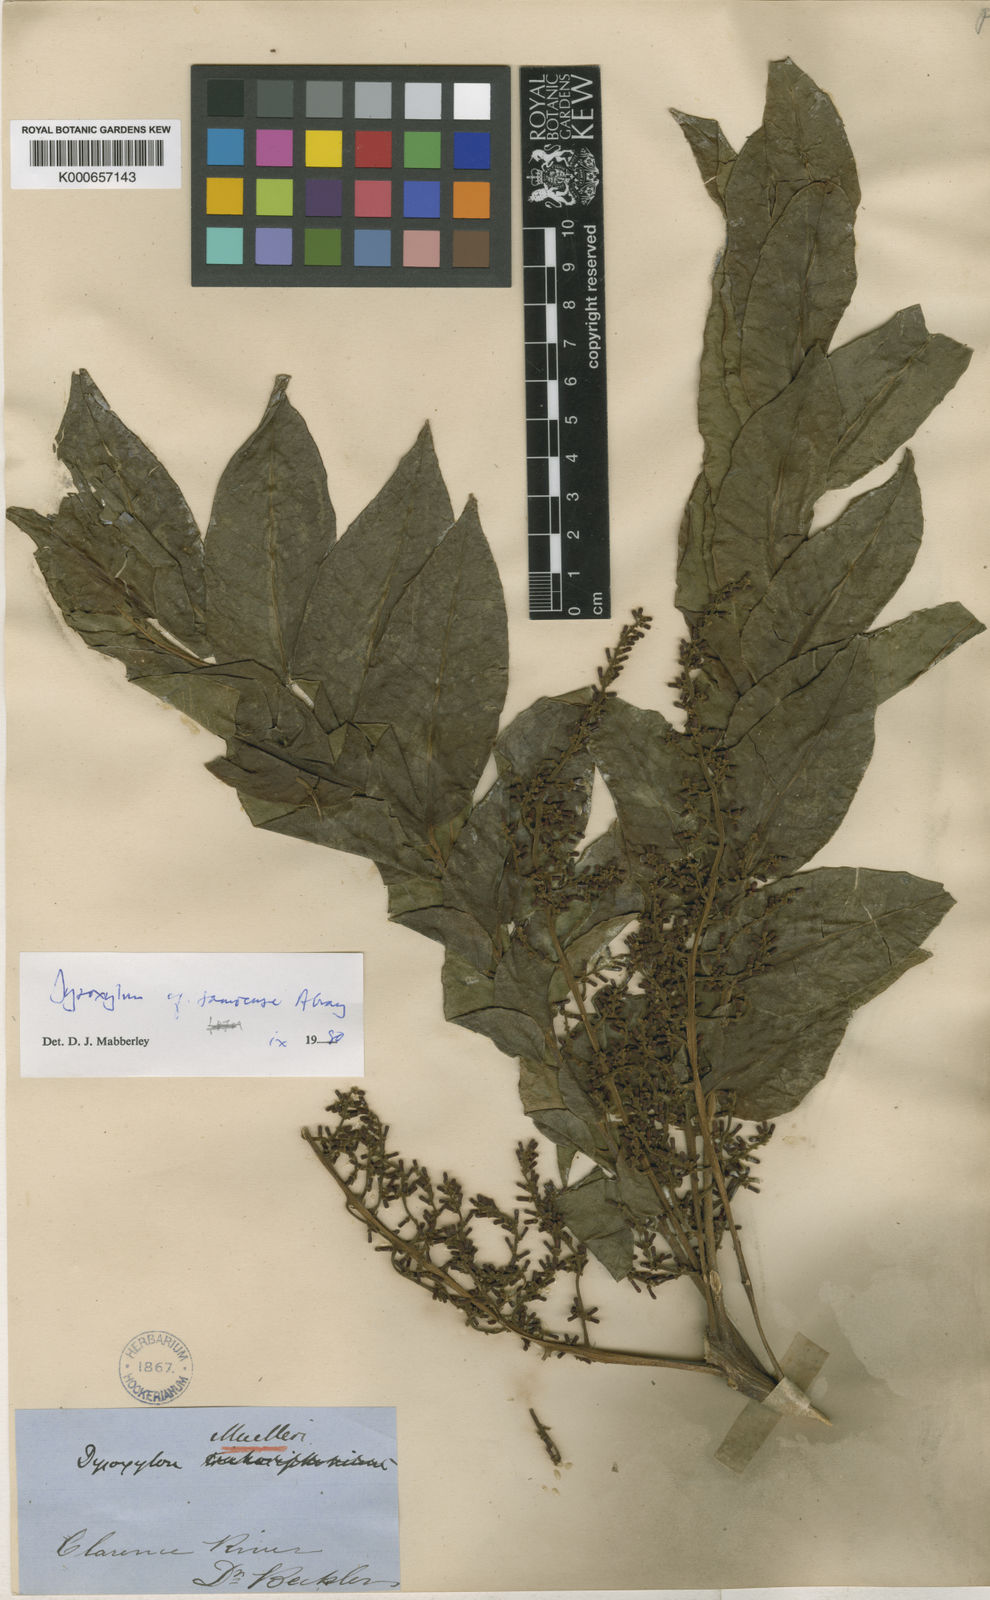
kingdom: Plantae
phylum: Tracheophyta
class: Magnoliopsida
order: Sapindales
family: Meliaceae
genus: Dysoxylum
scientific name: Dysoxylum mollissimum
